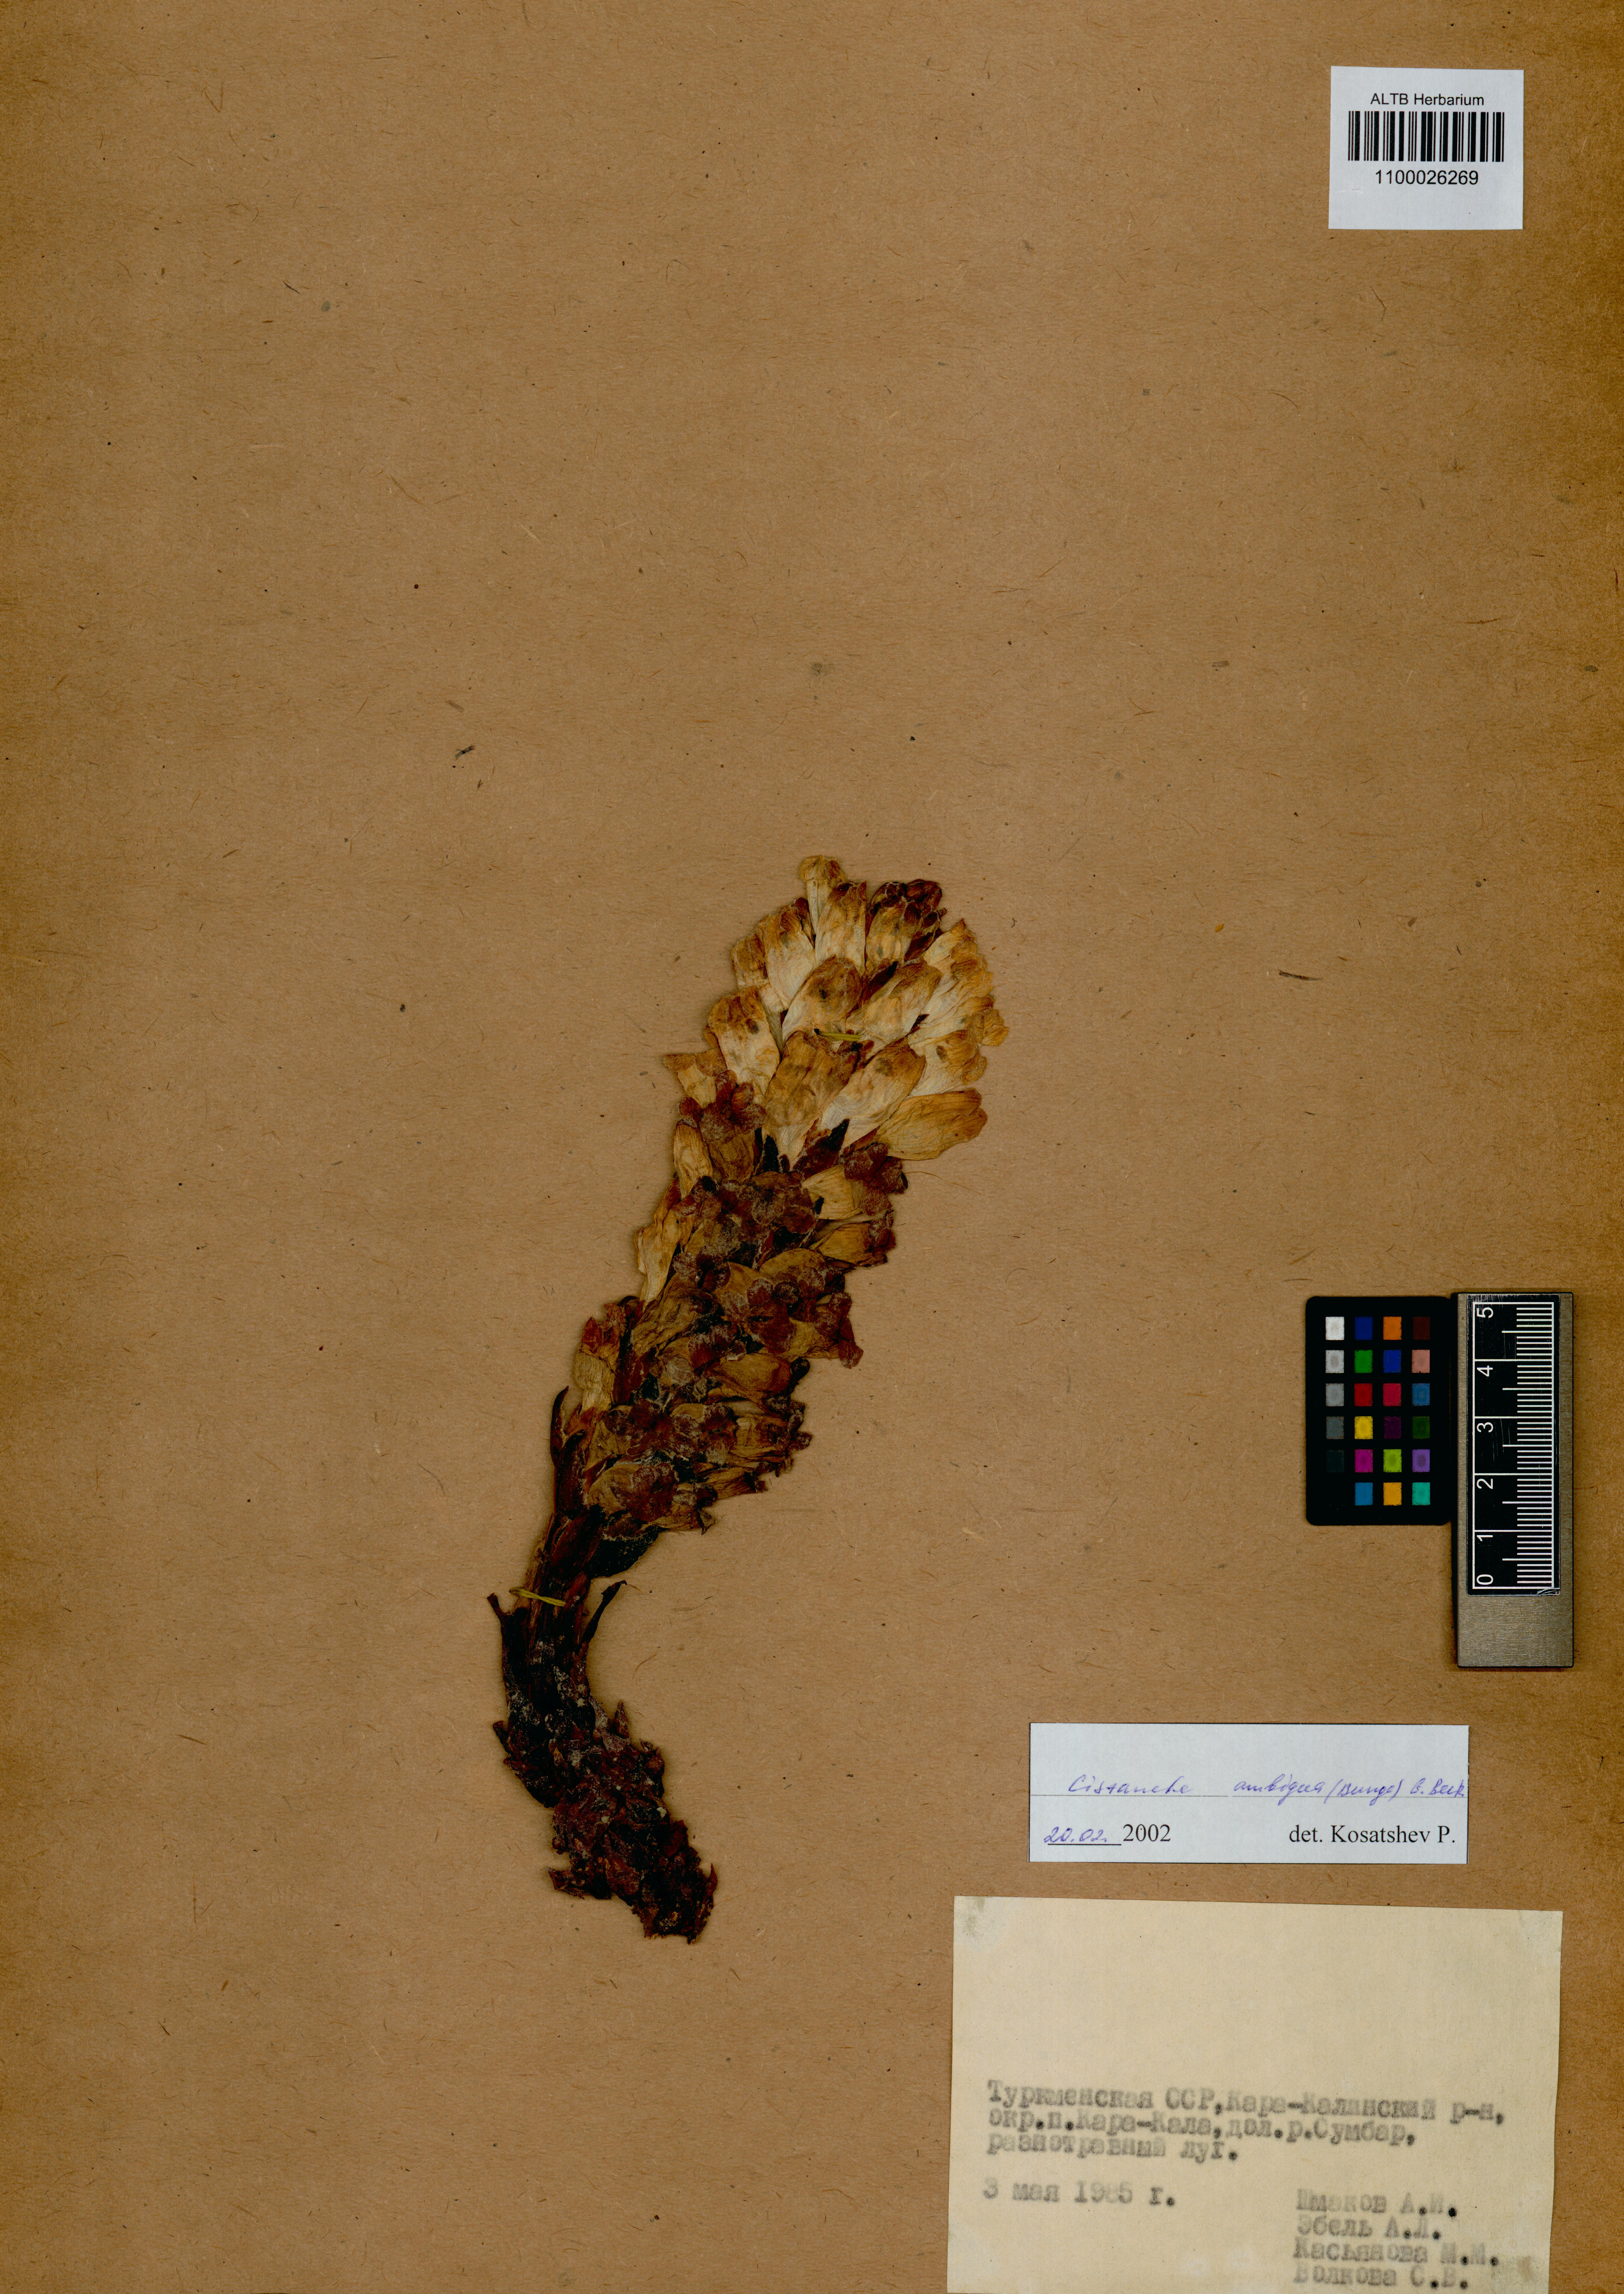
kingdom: Plantae
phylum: Tracheophyta
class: Magnoliopsida
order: Lamiales
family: Orobanchaceae
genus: Cistanche
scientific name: Cistanche ambigua
